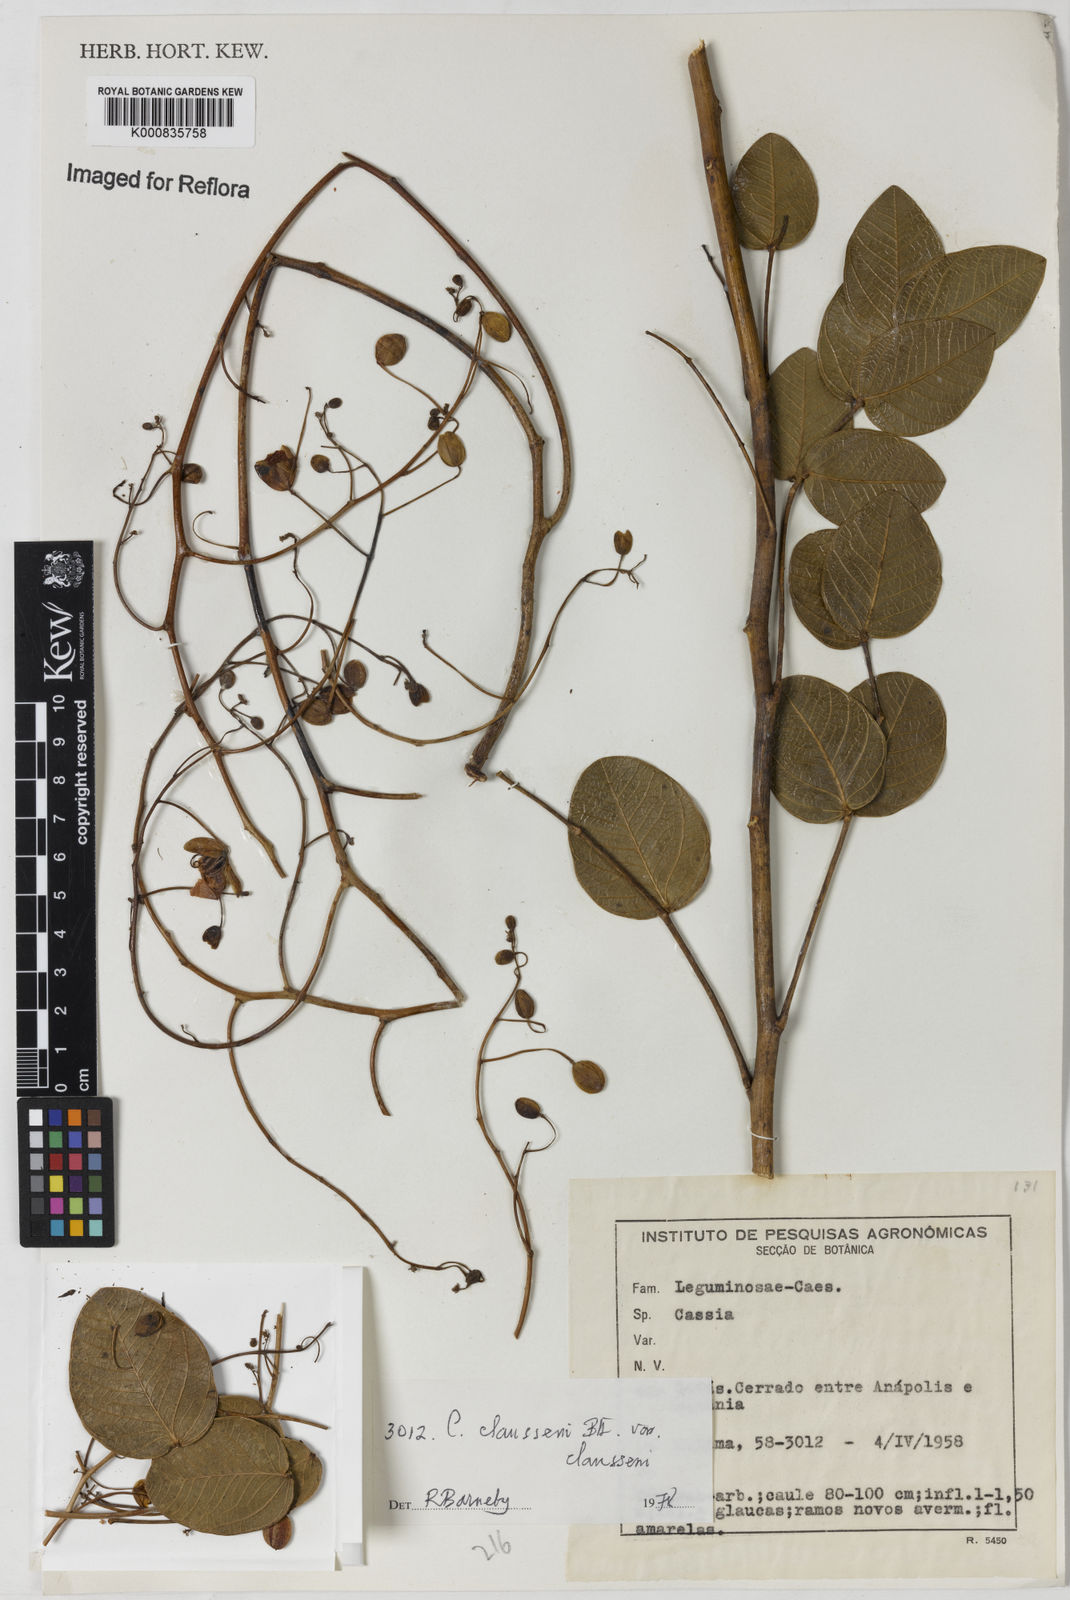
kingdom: Plantae
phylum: Tracheophyta
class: Magnoliopsida
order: Fabales
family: Fabaceae
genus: Chamaecrista
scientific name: Chamaecrista claussenii
